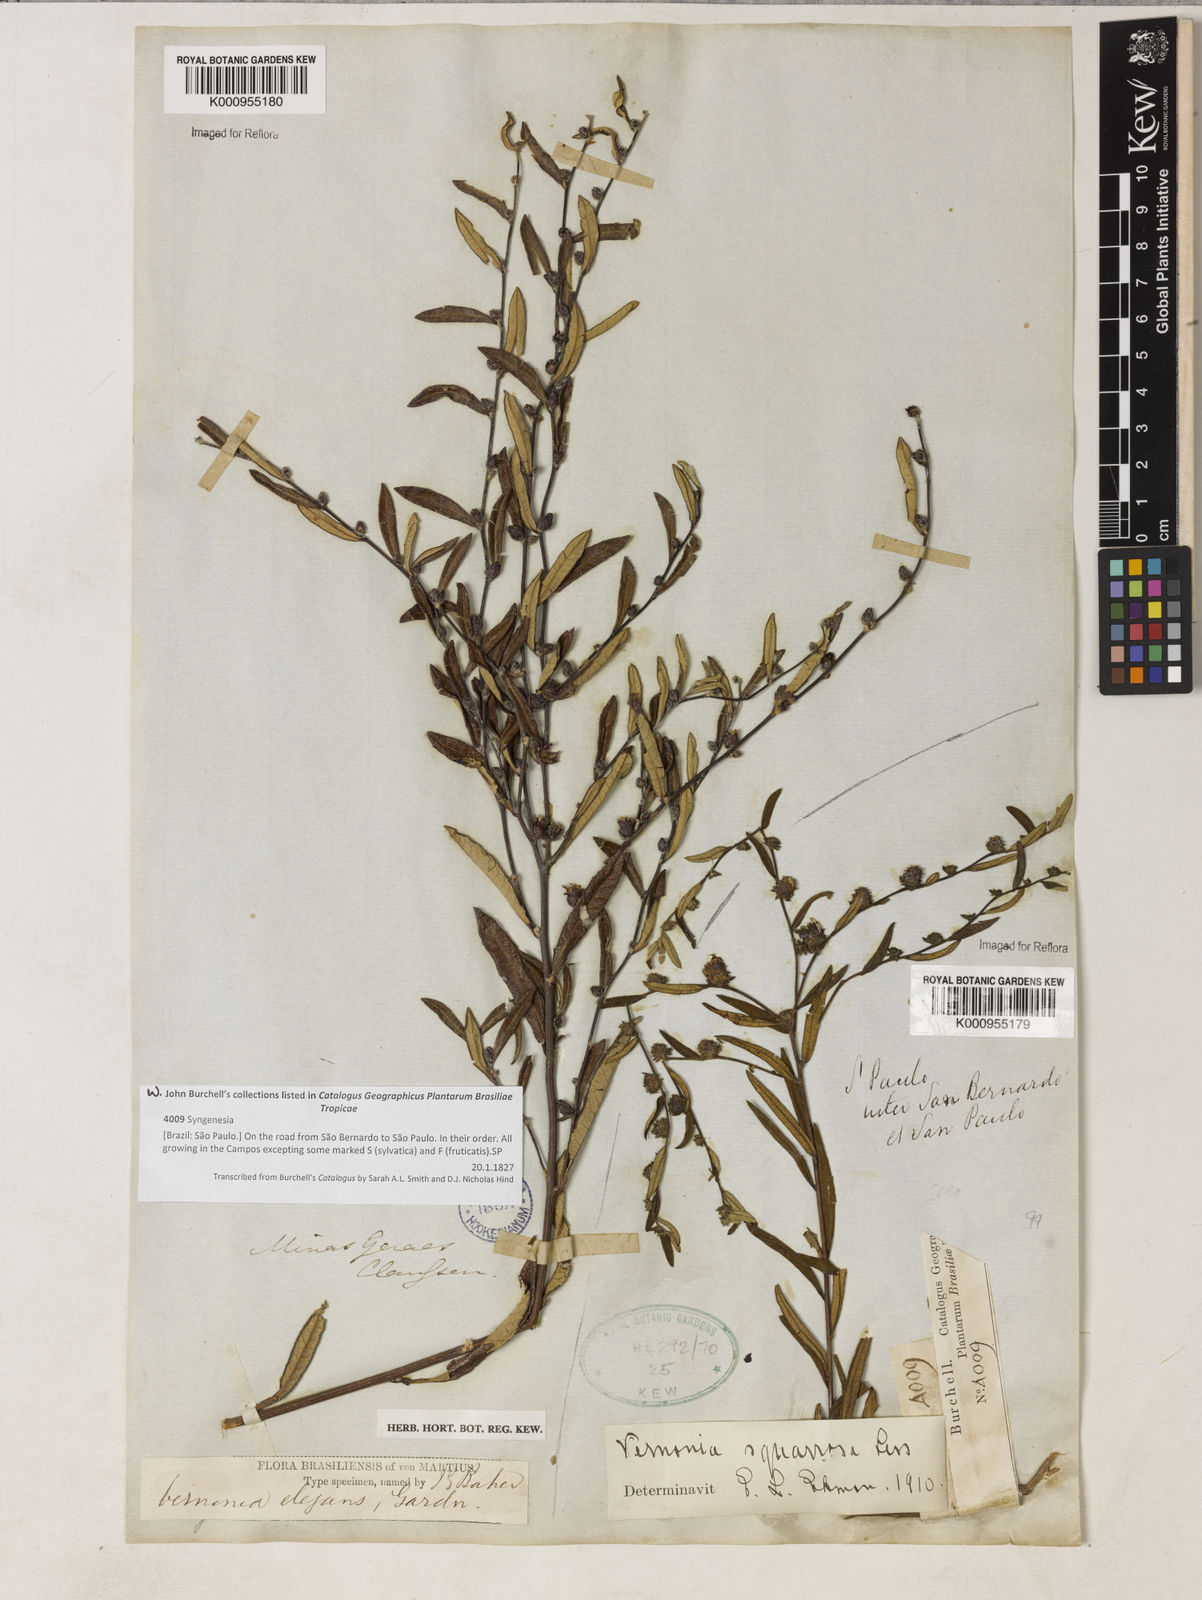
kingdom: Plantae
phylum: Tracheophyta
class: Magnoliopsida
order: Asterales
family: Asteraceae
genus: Lessingianthus
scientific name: Lessingianthus buddlejifolius
